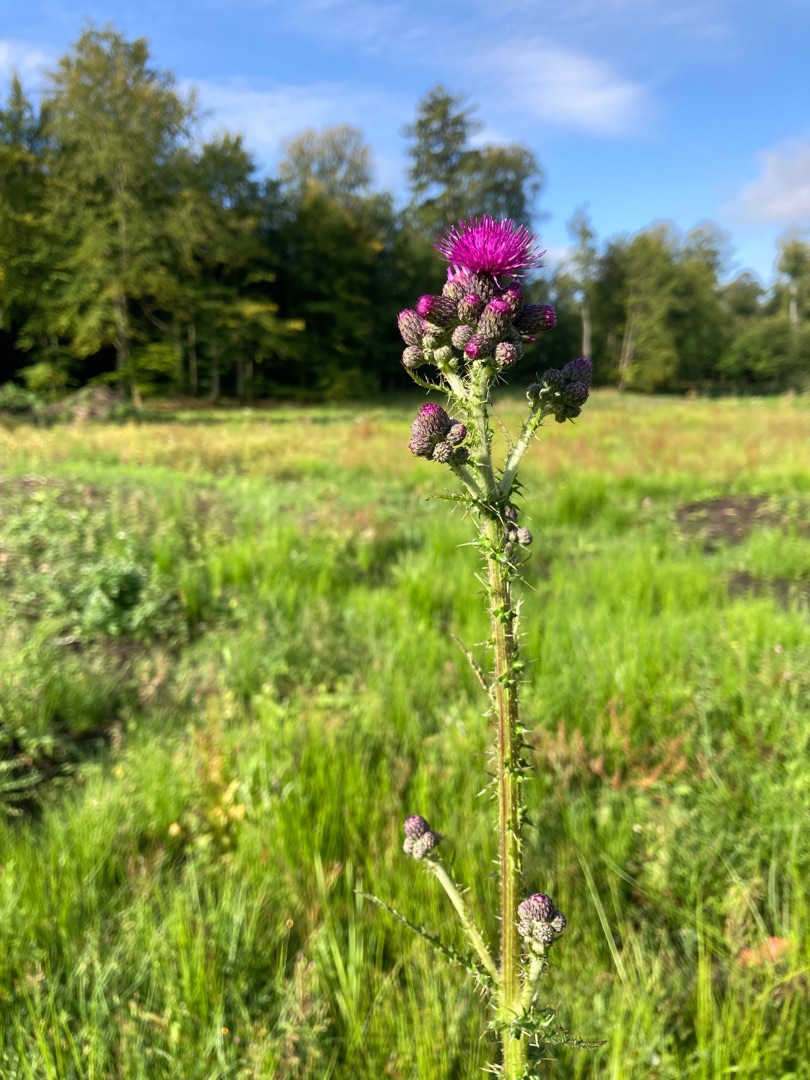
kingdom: Plantae
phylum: Tracheophyta
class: Magnoliopsida
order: Asterales
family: Asteraceae
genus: Cirsium
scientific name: Cirsium palustre
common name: Kær-tidsel
